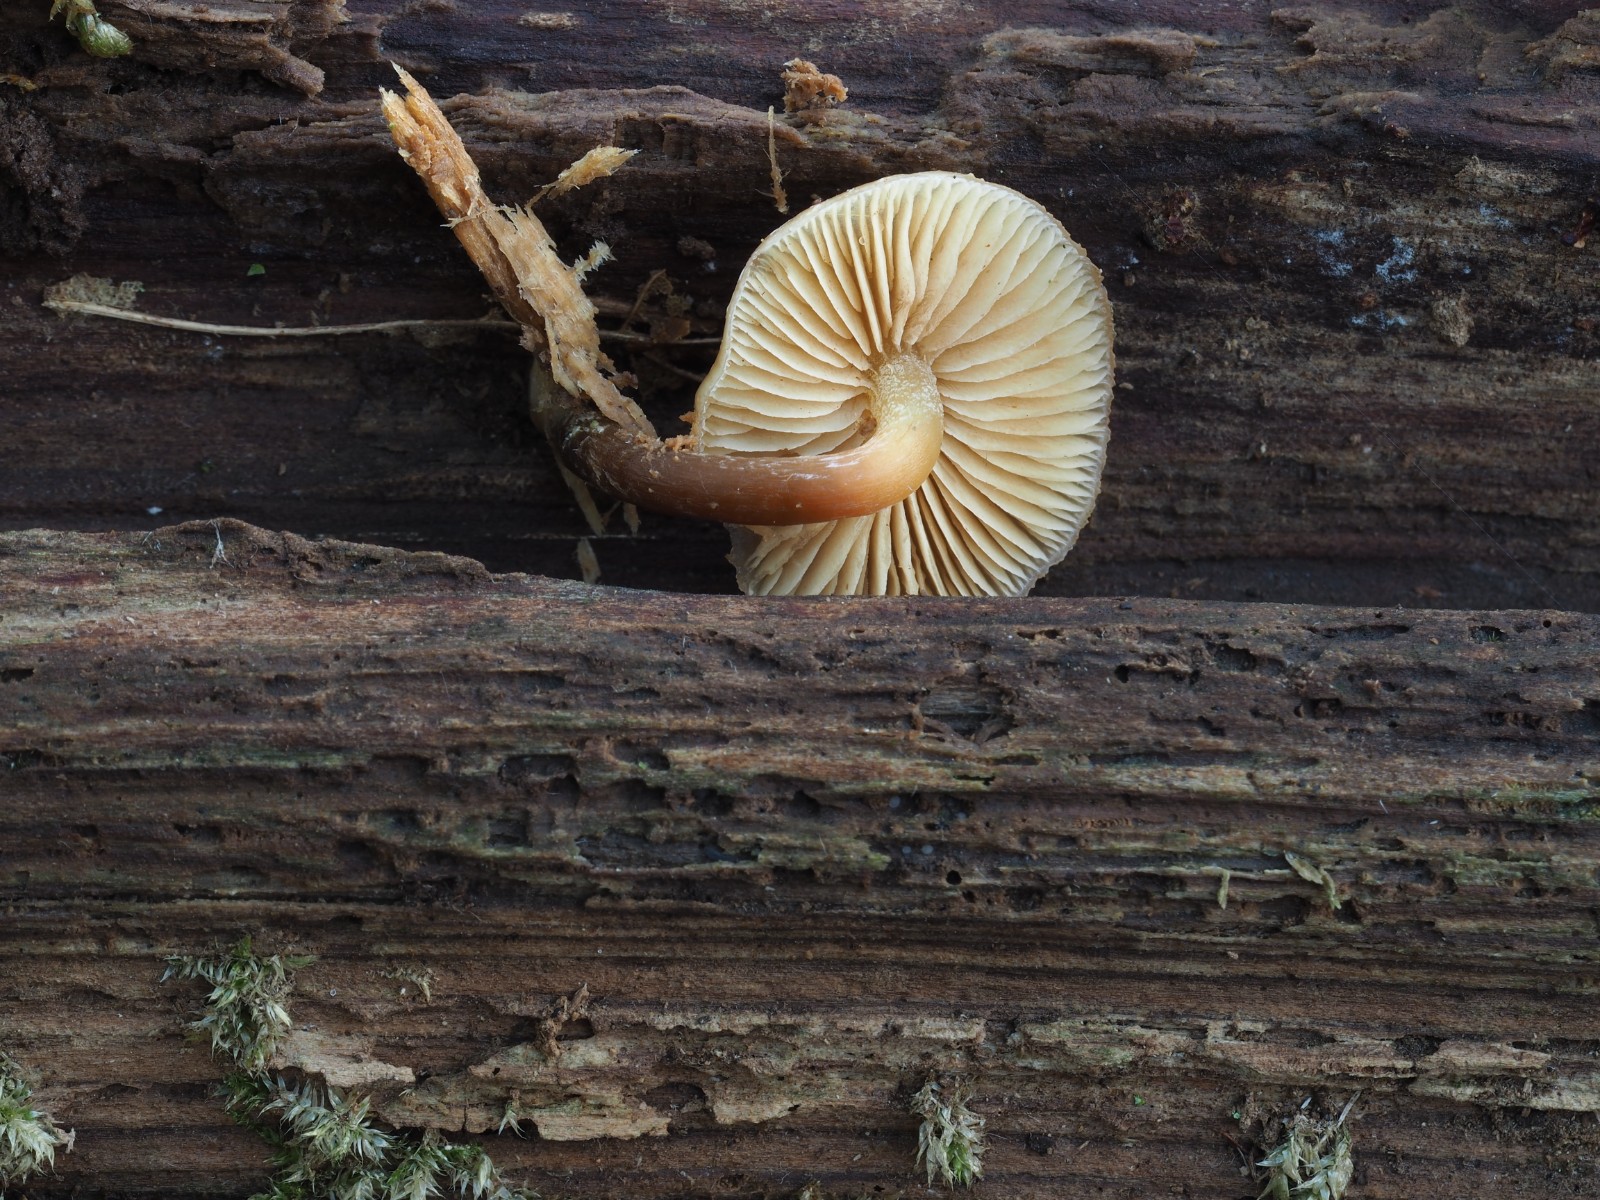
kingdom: Fungi
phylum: Basidiomycota
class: Agaricomycetes
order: Agaricales
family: Physalacriaceae
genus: Flammulina
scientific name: Flammulina velutipes
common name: gul fløjlsfod
